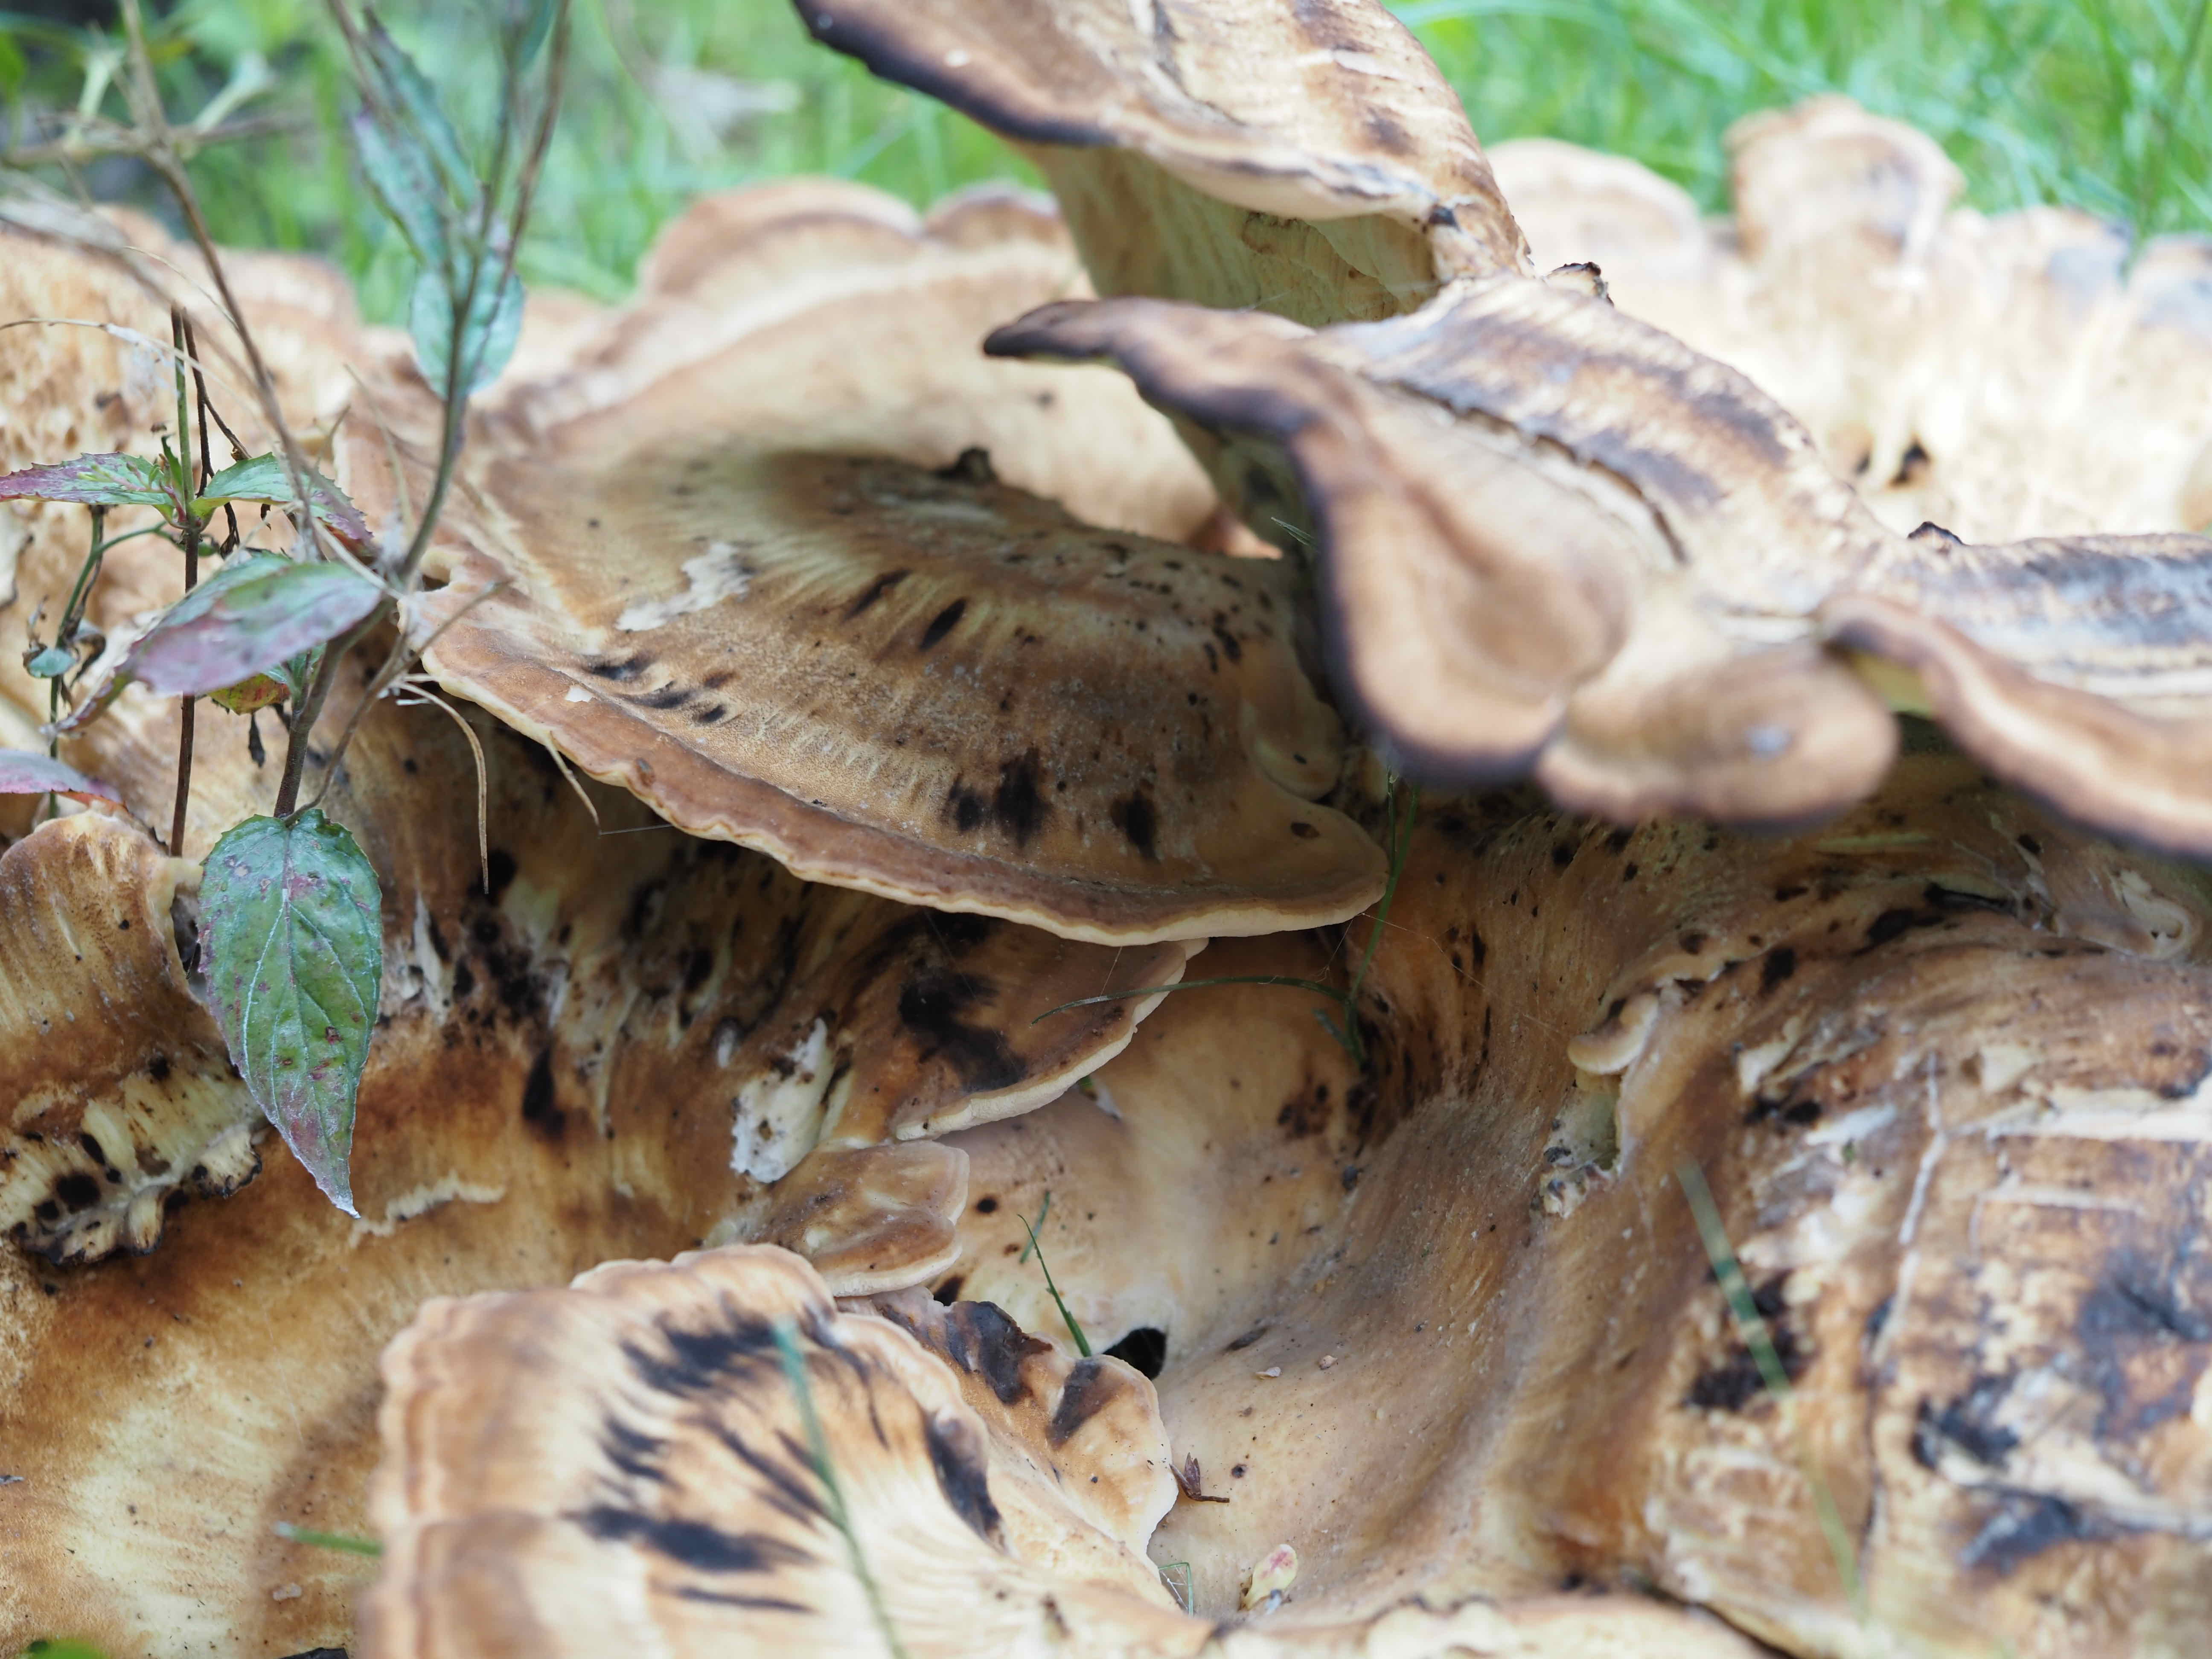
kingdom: Fungi
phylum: Basidiomycota
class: Agaricomycetes
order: Polyporales
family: Meripilaceae
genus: Meripilus
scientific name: Meripilus giganteus
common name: kæmpeporesvamp
